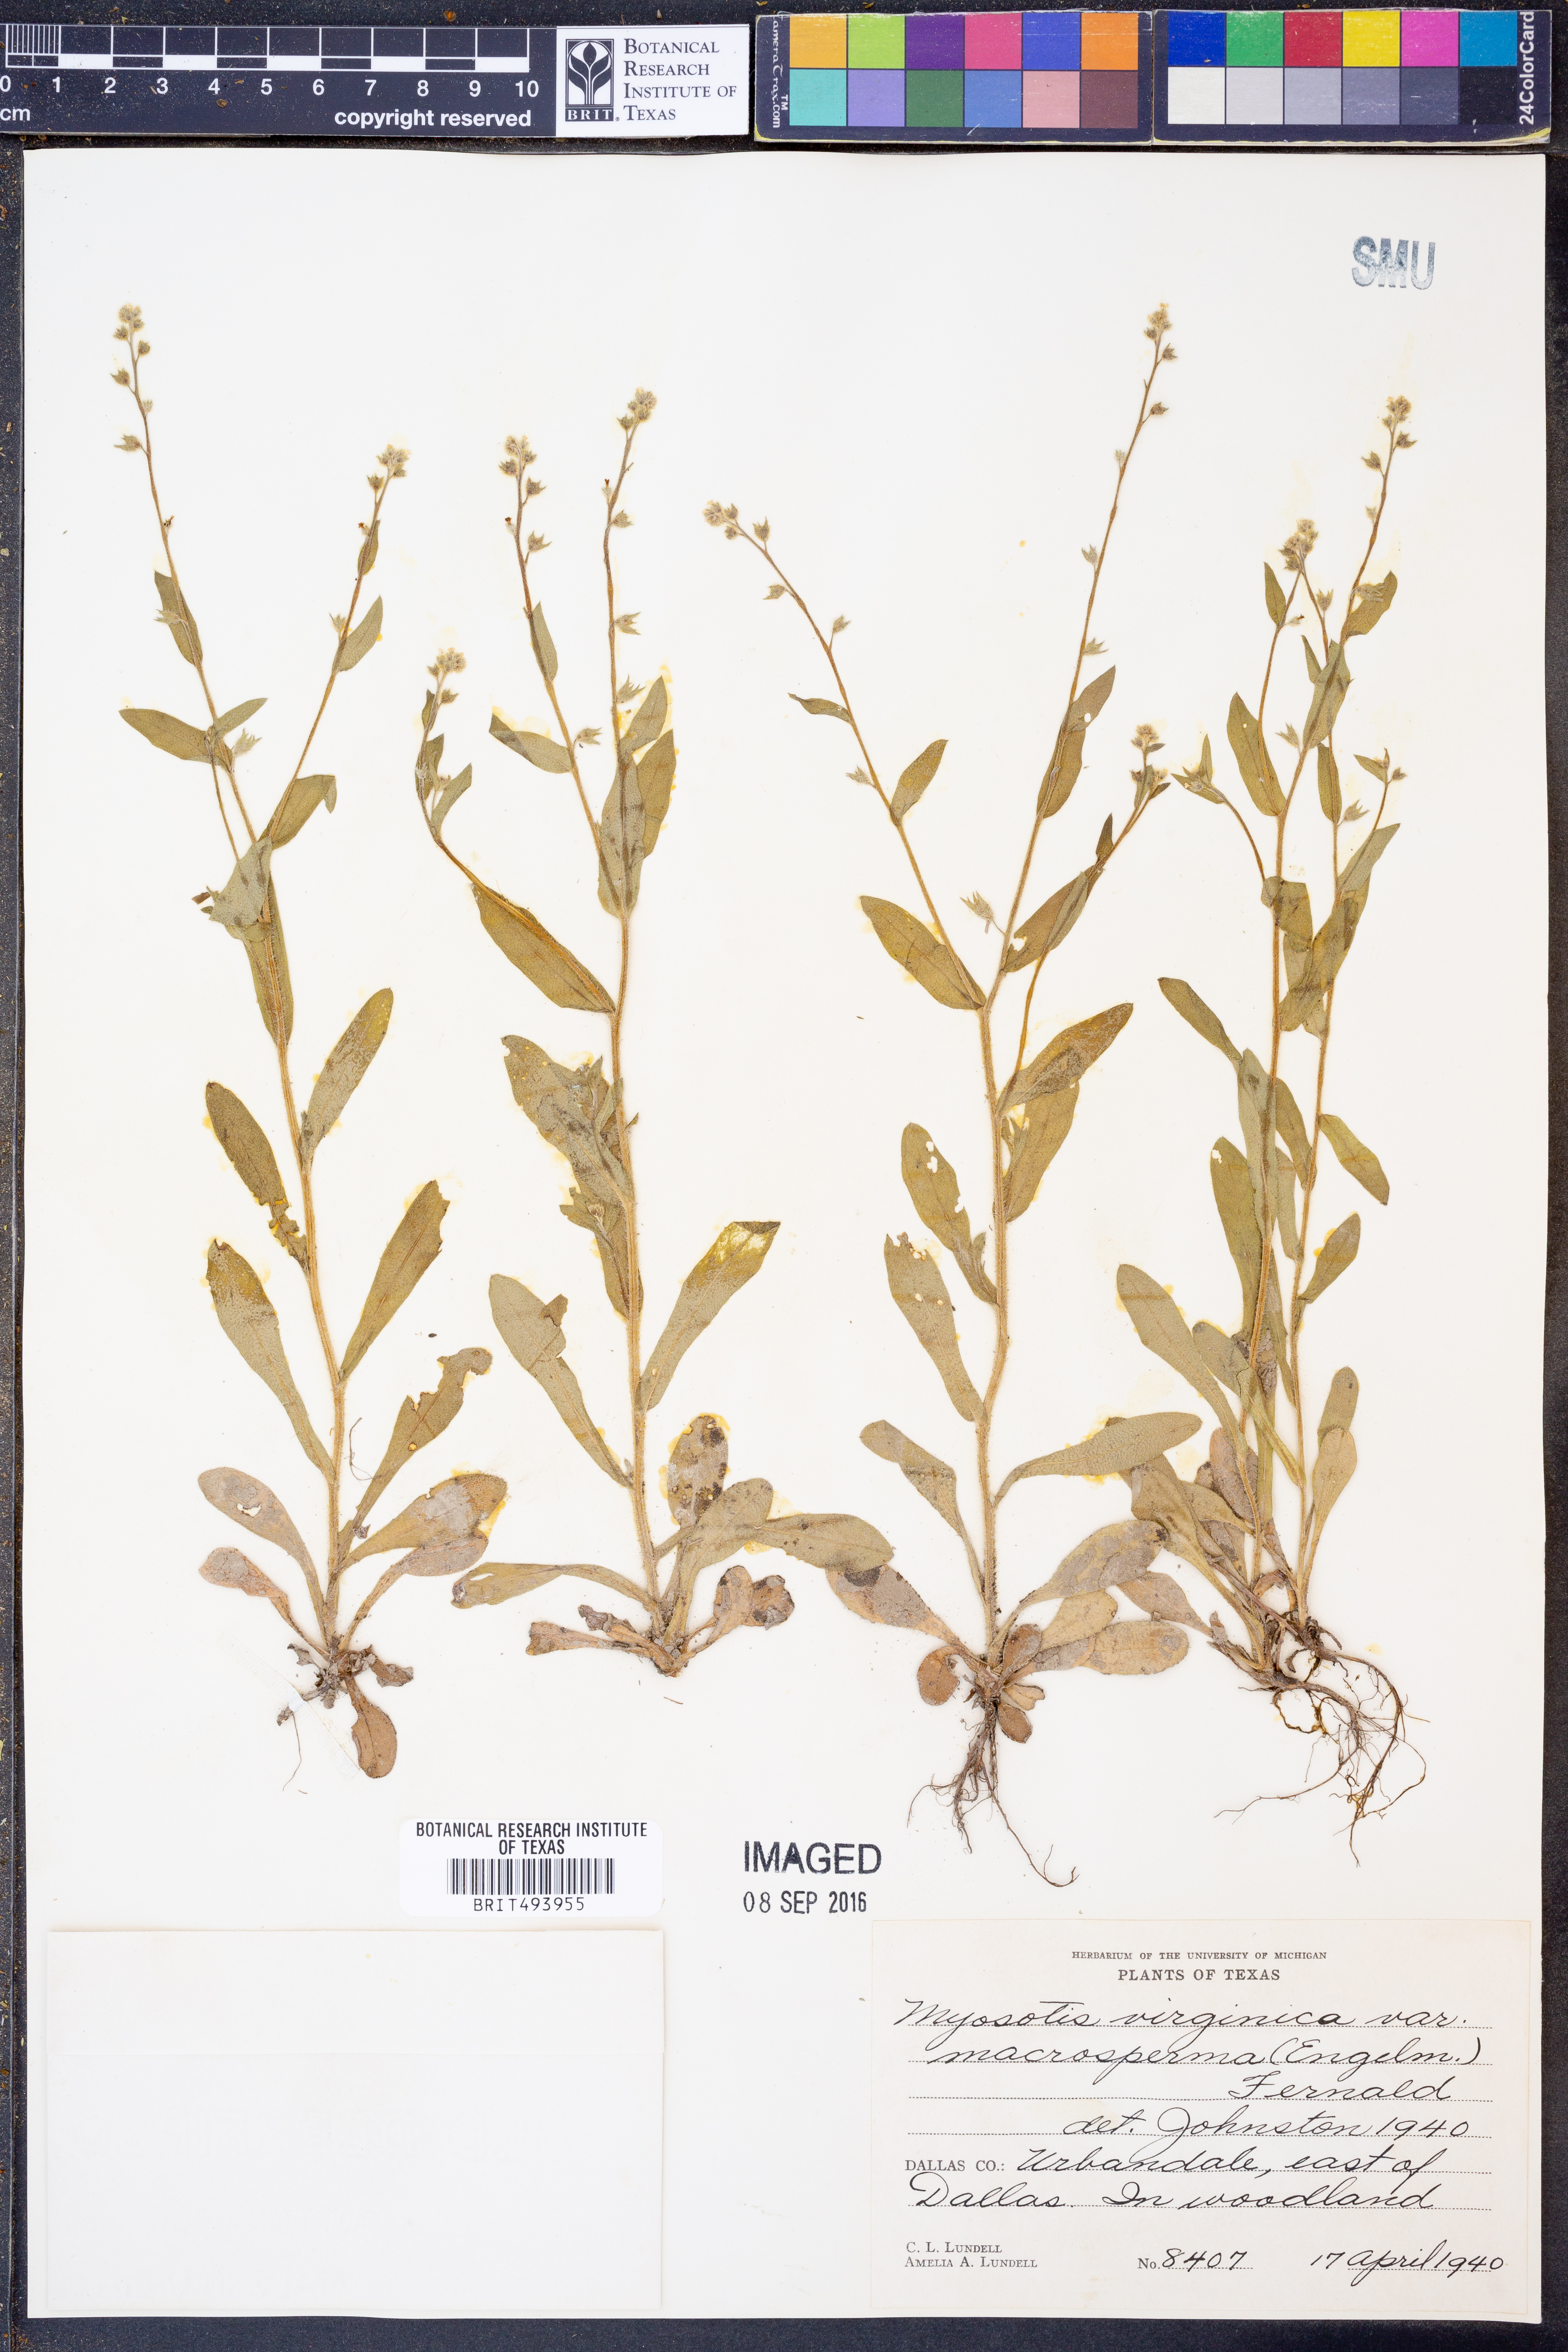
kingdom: Plantae
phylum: Tracheophyta
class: Magnoliopsida
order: Boraginales
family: Boraginaceae
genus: Myosotis
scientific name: Myosotis macrosperma
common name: Large-seed forget-me-not
